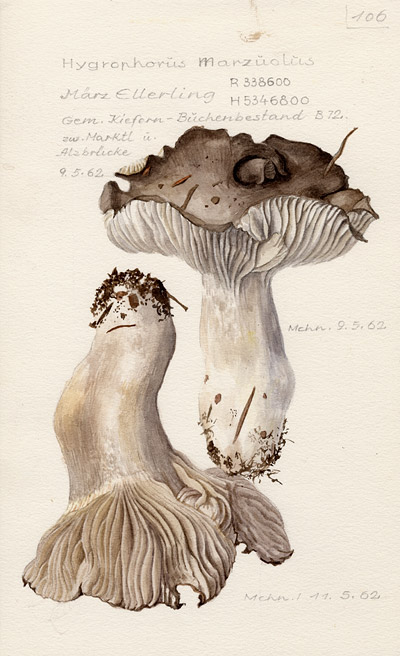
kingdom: Fungi
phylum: Basidiomycota
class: Agaricomycetes
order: Agaricales
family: Hygrophoraceae
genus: Hygrophorus
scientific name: Hygrophorus marzuolus
